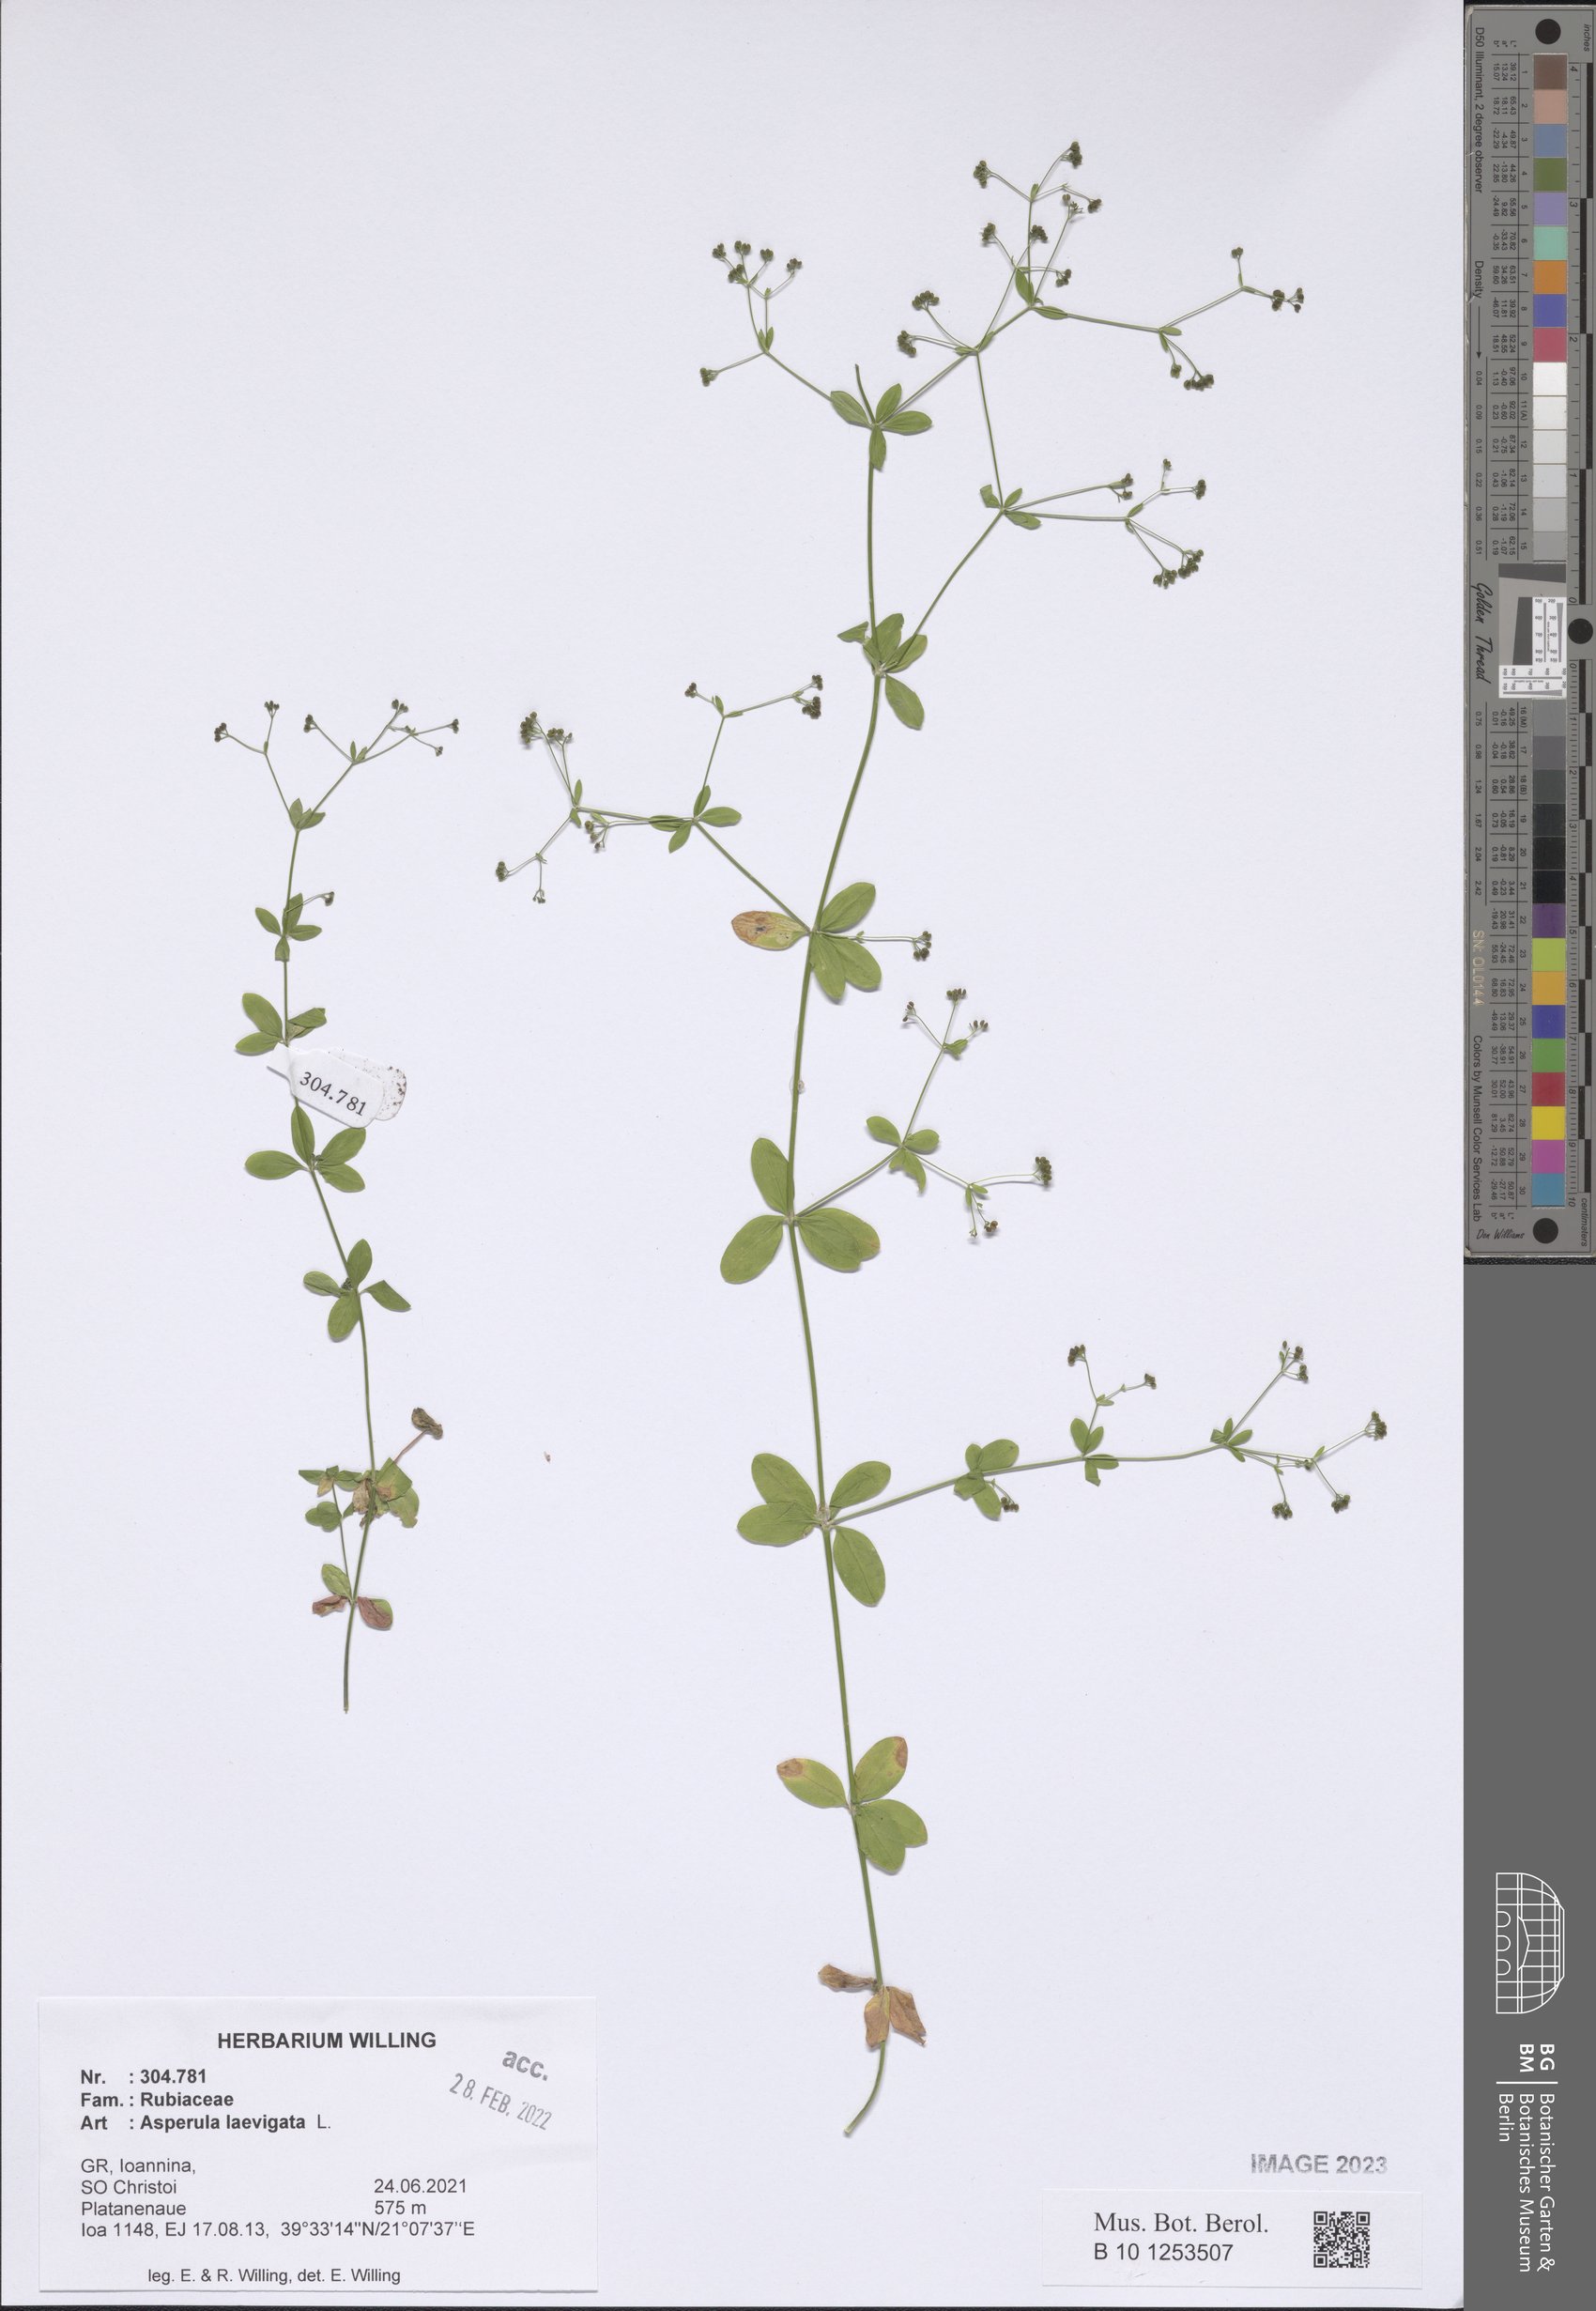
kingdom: Plantae
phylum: Tracheophyta
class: Magnoliopsida
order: Gentianales
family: Rubiaceae
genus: Asperula
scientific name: Asperula laevigata
